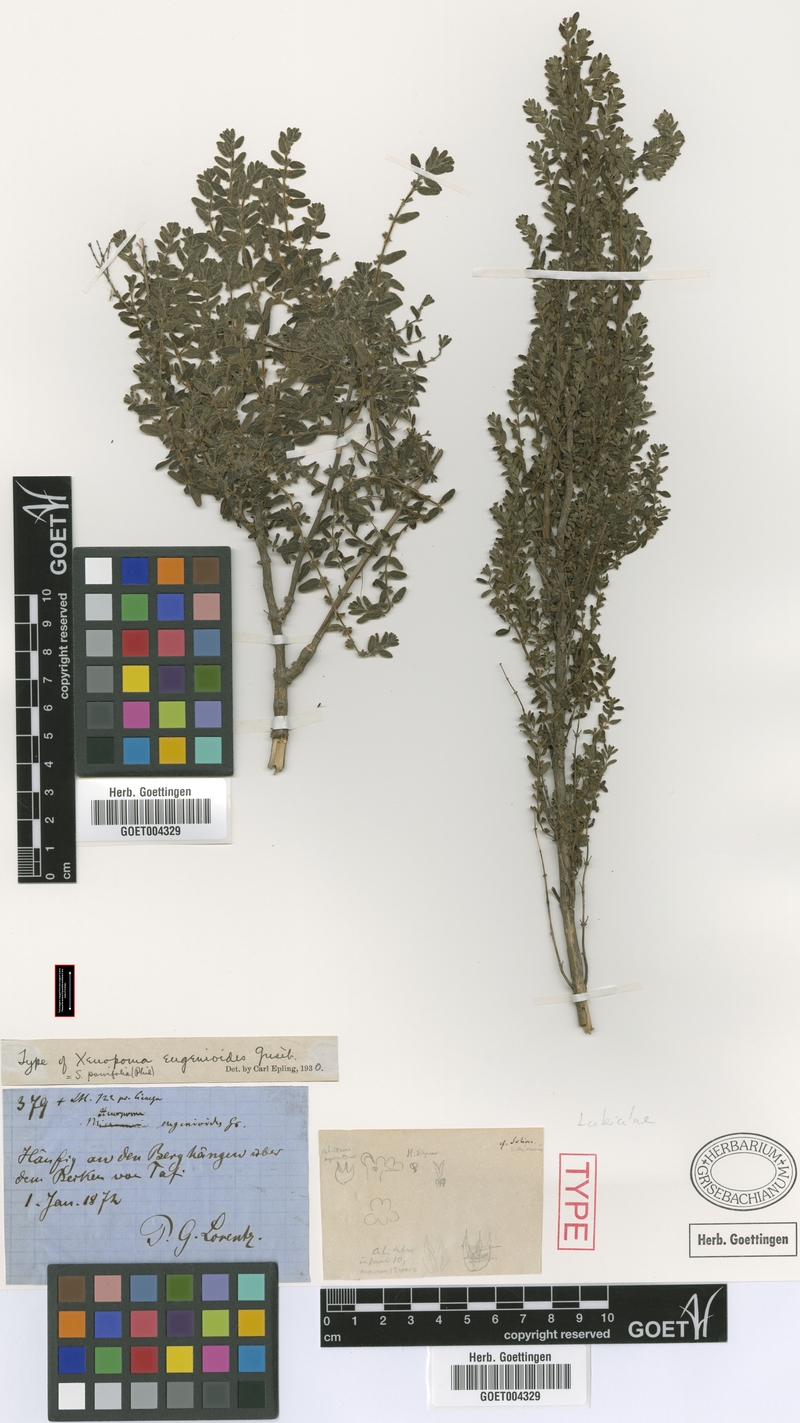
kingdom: Plantae
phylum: Tracheophyta
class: Magnoliopsida
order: Lamiales
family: Lamiaceae
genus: Clinopodium
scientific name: Clinopodium gilliesii
